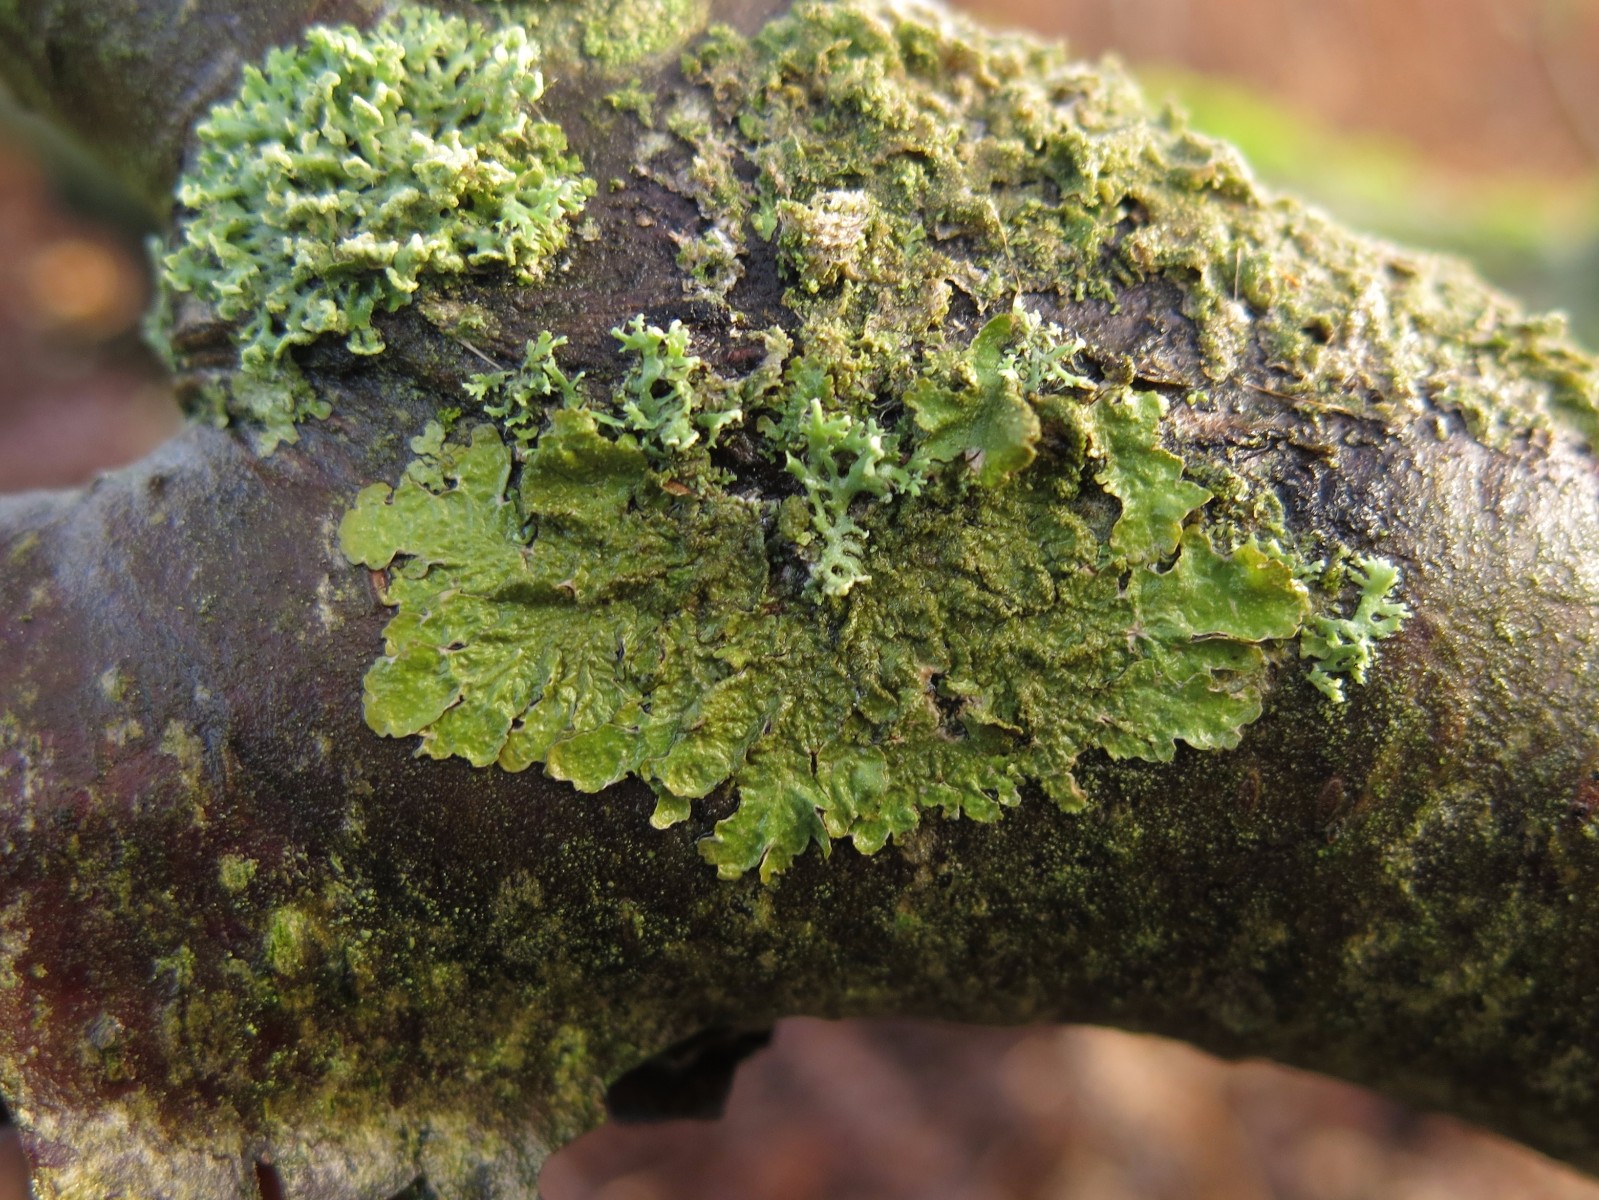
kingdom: Fungi
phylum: Ascomycota
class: Lecanoromycetes
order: Lecanorales
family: Parmeliaceae
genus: Melanelixia
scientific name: Melanelixia subaurifera
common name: guldpudret skållav
